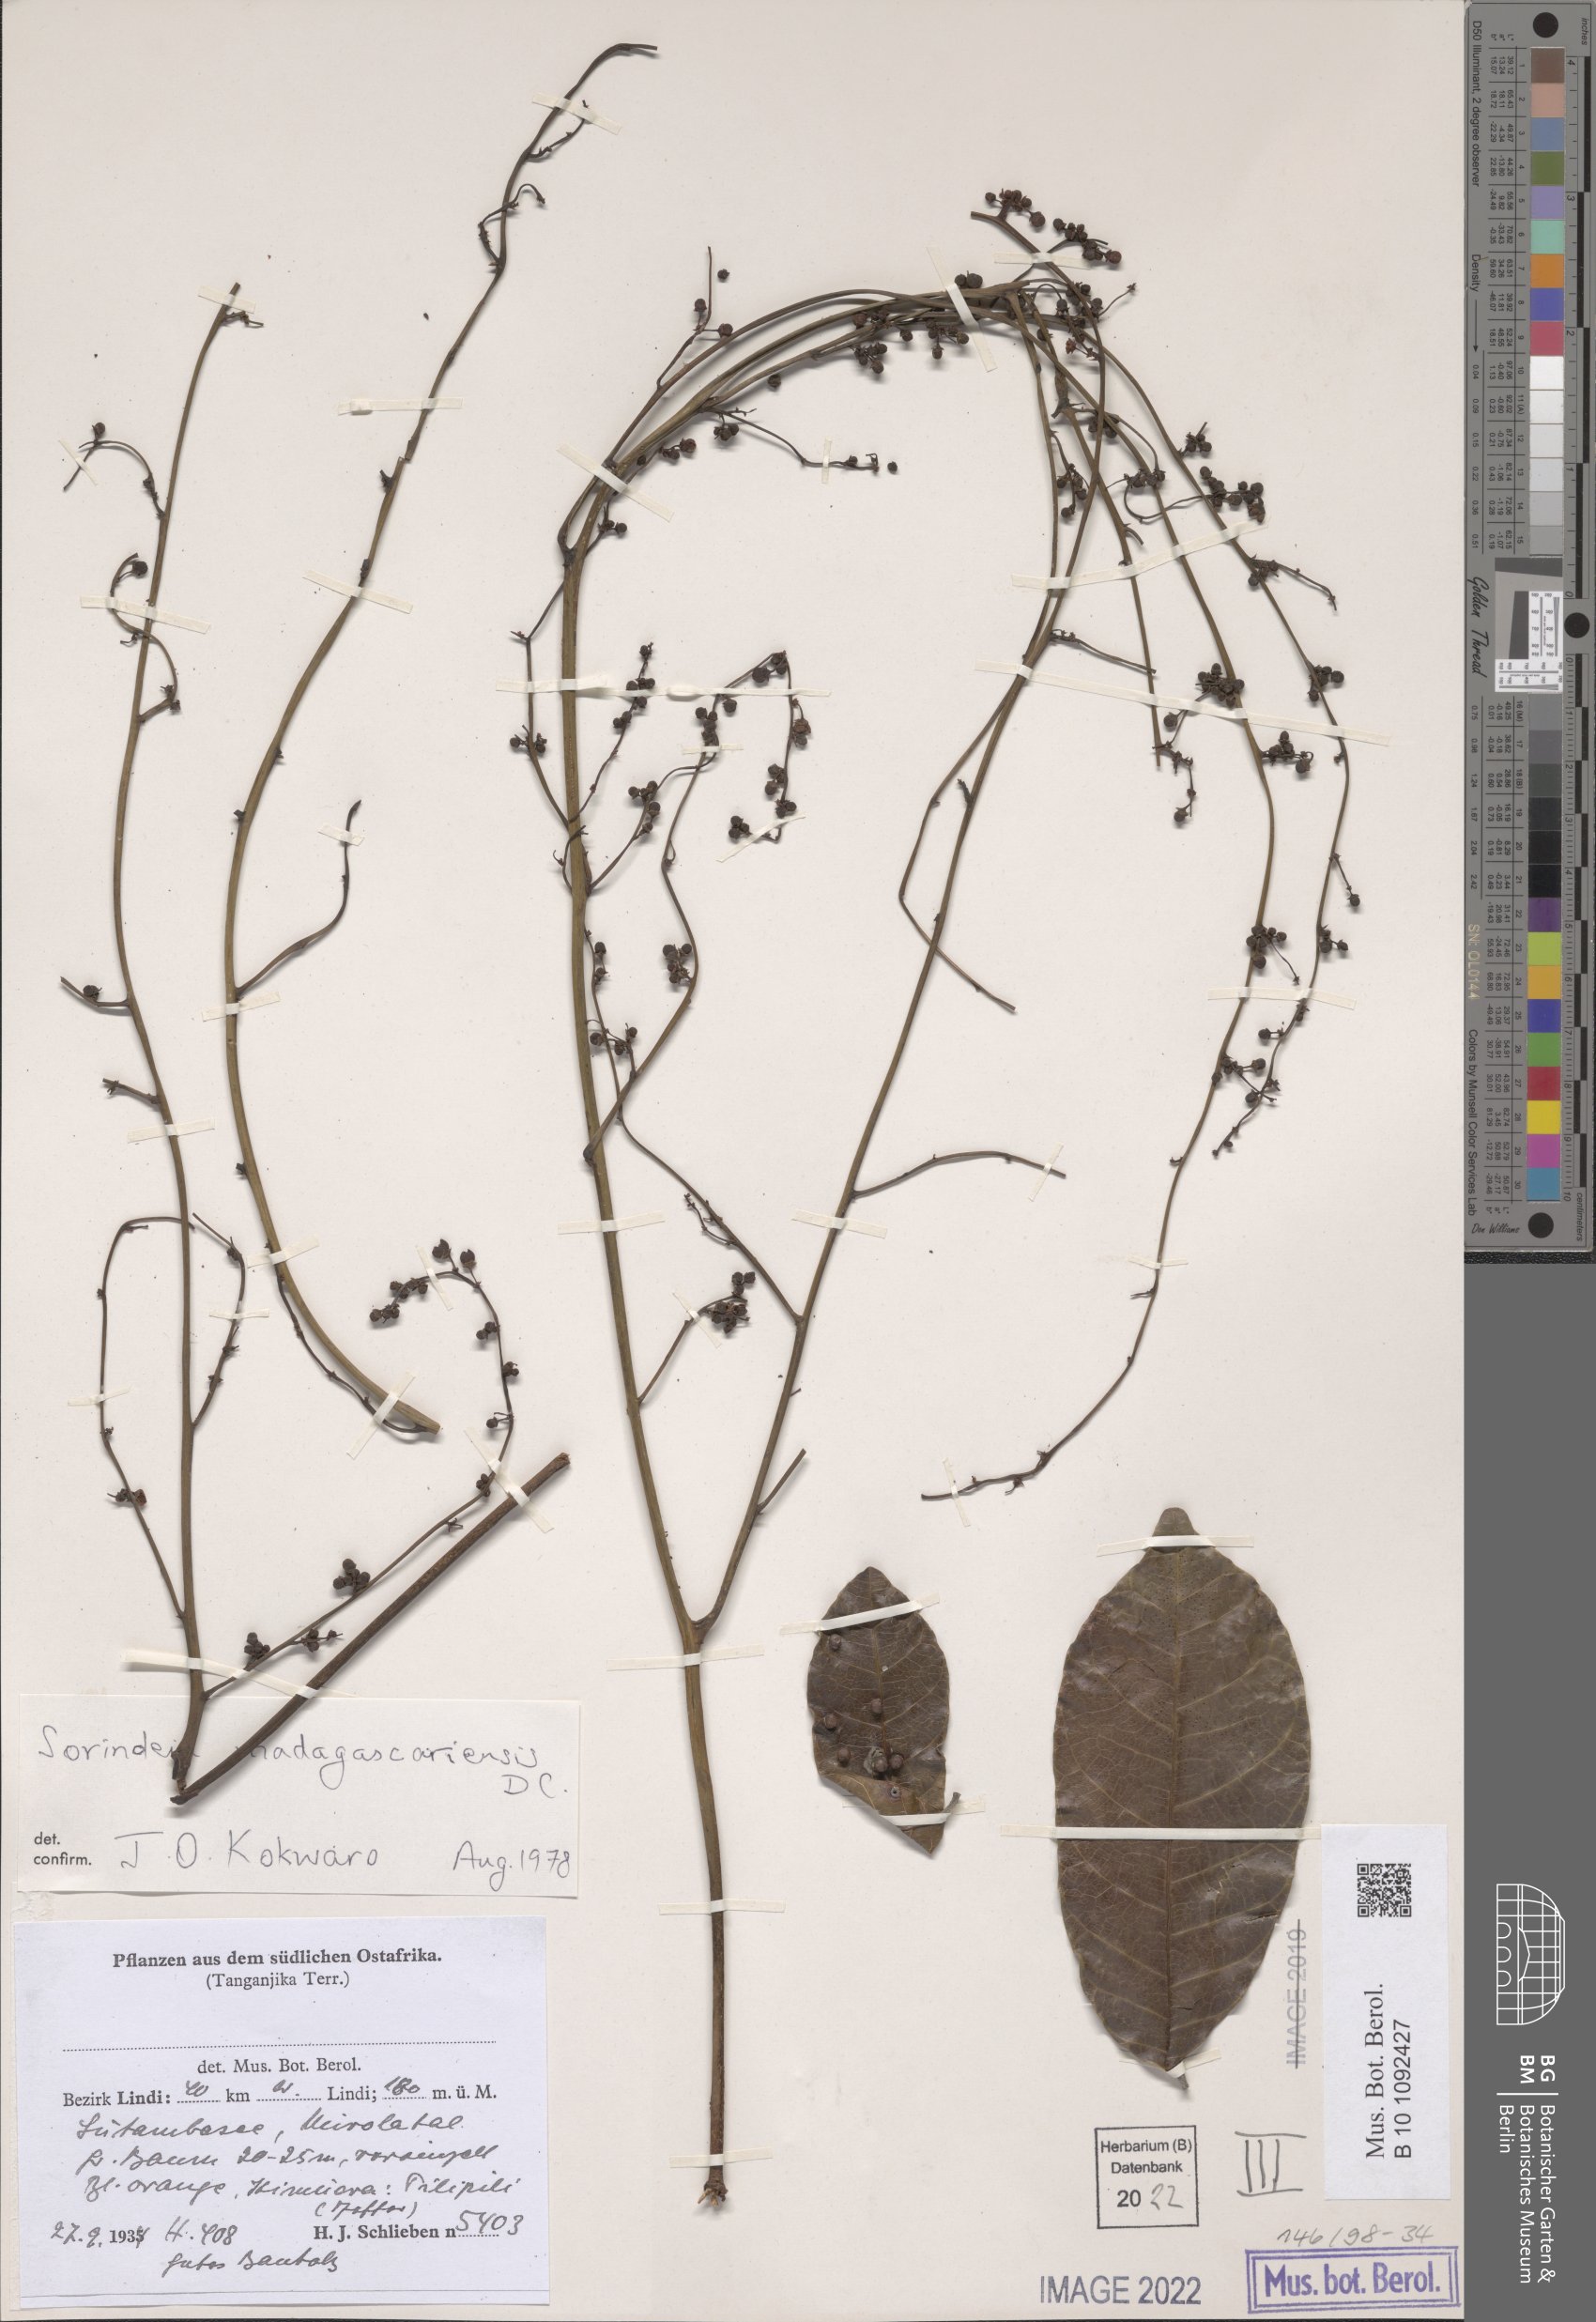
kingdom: Plantae
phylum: Tracheophyta
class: Magnoliopsida
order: Sapindales
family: Anacardiaceae
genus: Sorindeia
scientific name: Sorindeia madagascariensis
